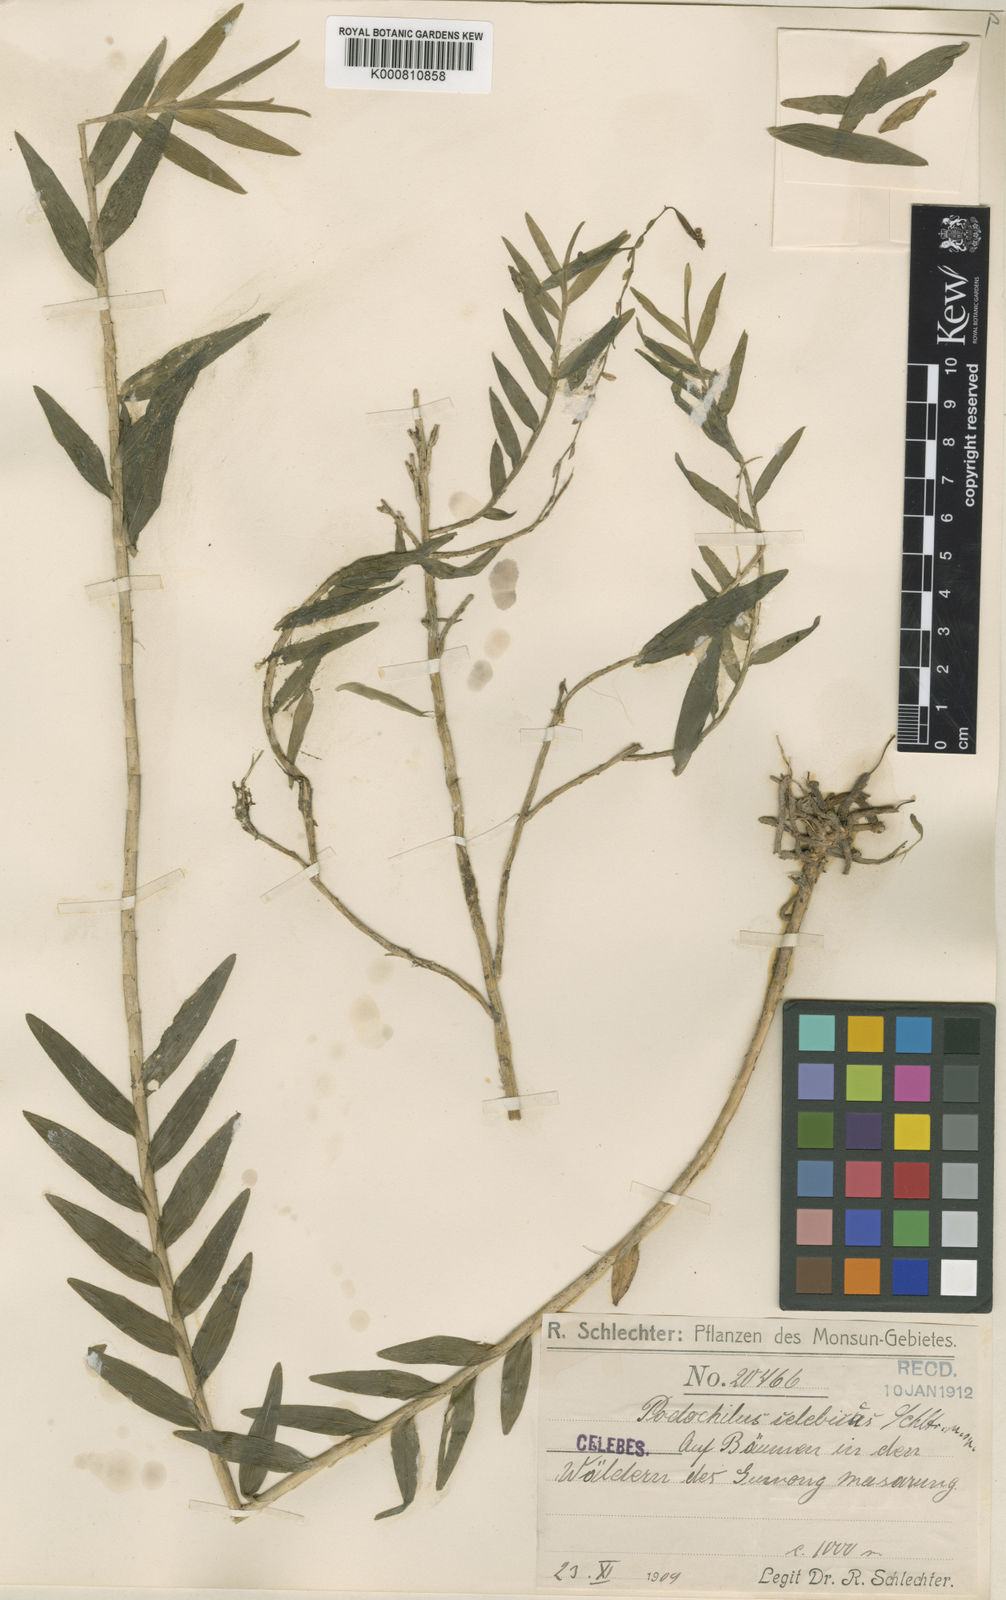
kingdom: Plantae
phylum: Tracheophyta
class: Liliopsida
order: Asparagales
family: Orchidaceae
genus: Appendicula
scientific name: Appendicula celebica
